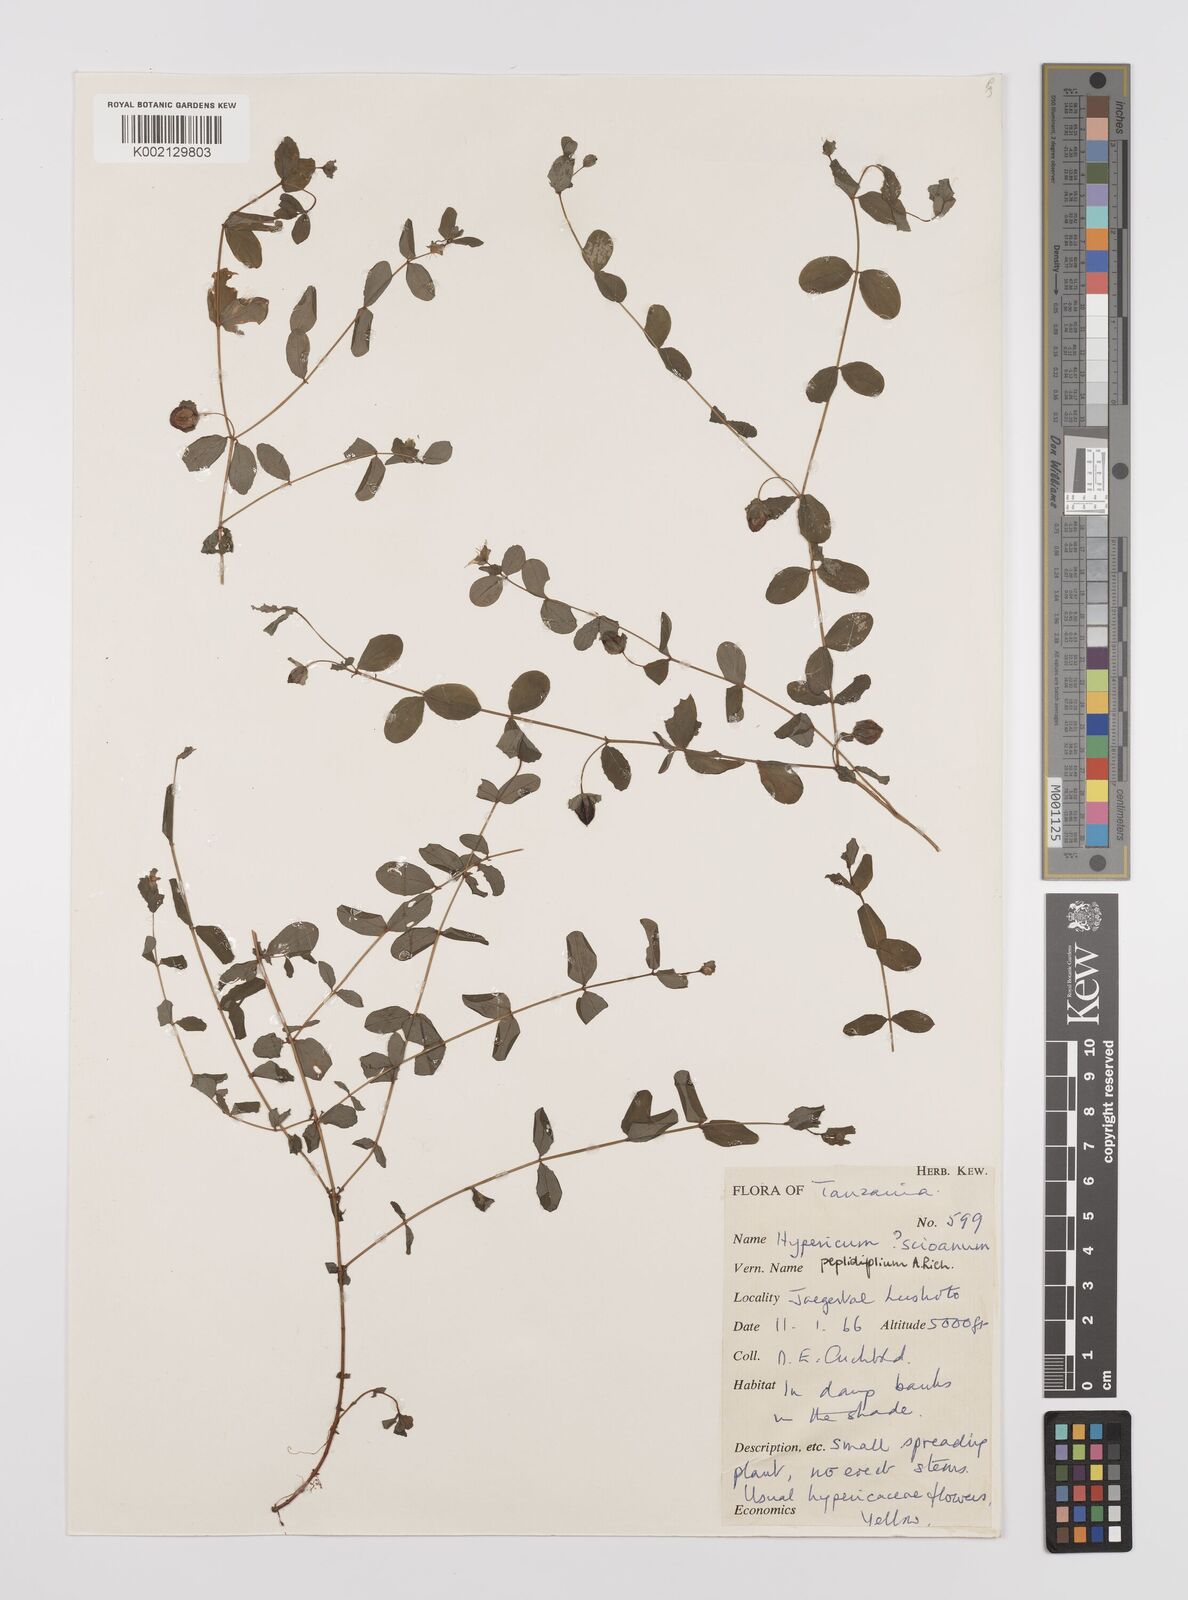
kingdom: Plantae
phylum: Tracheophyta
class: Magnoliopsida
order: Malpighiales
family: Hypericaceae
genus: Hypericum
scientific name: Hypericum peplidifolium
